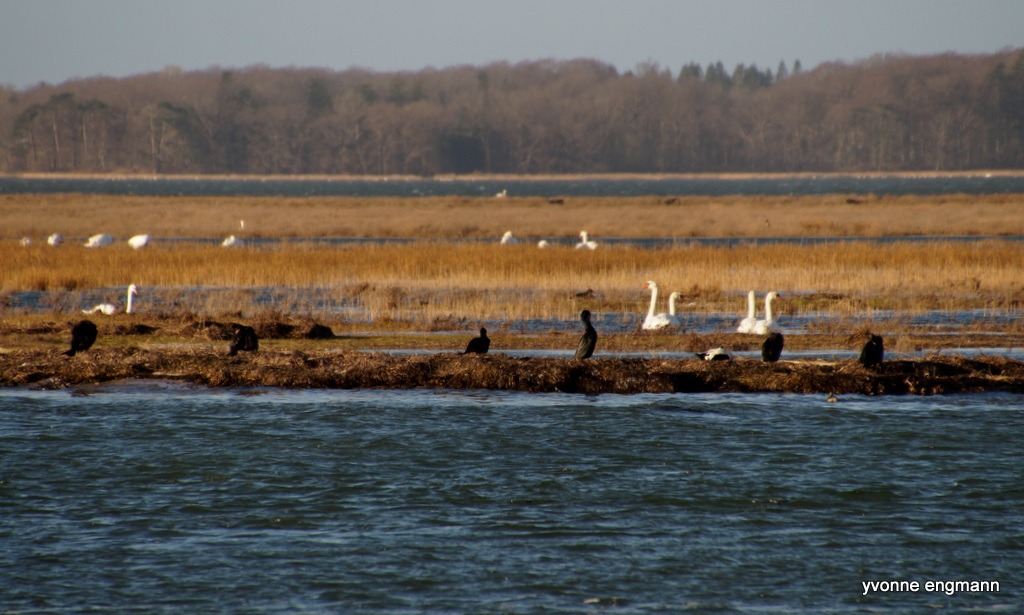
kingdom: Animalia
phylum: Chordata
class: Aves
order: Suliformes
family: Phalacrocoracidae
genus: Phalacrocorax
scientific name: Phalacrocorax carbo
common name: Skarv
